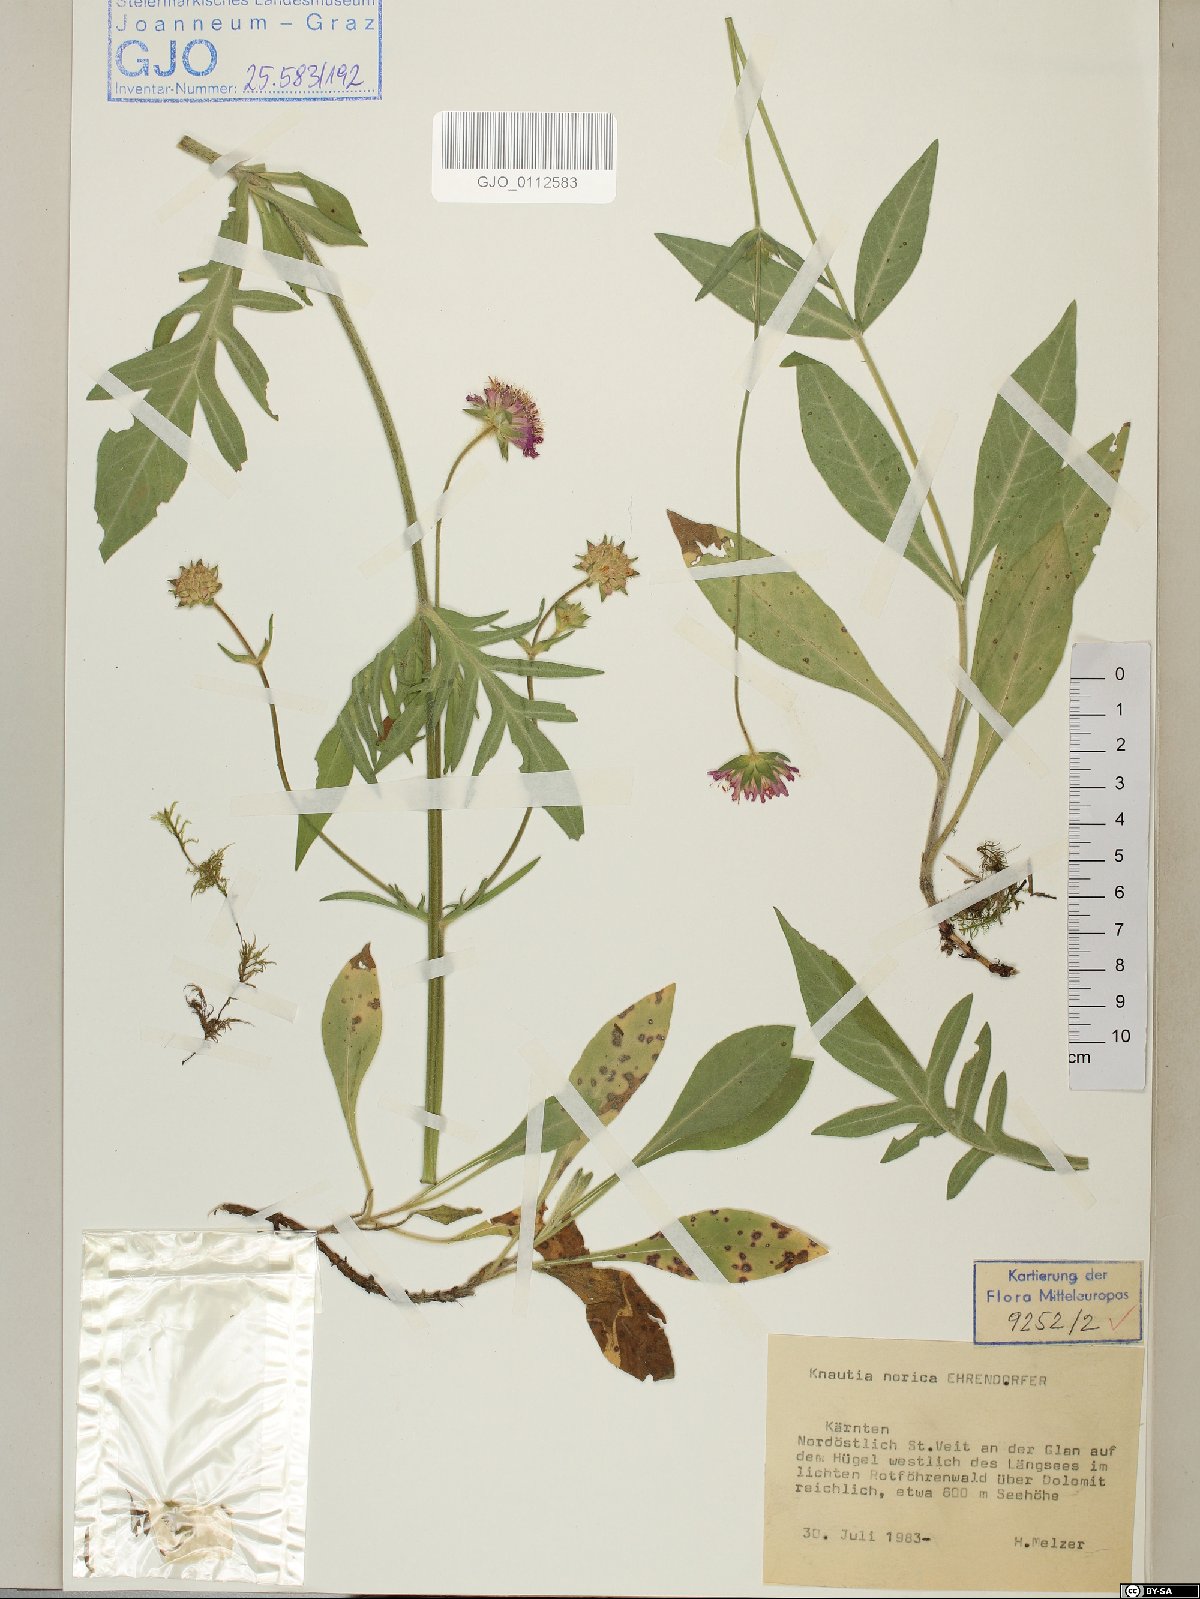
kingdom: Plantae
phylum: Tracheophyta
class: Magnoliopsida
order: Dipsacales
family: Caprifoliaceae
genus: Knautia
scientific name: Knautia norica
